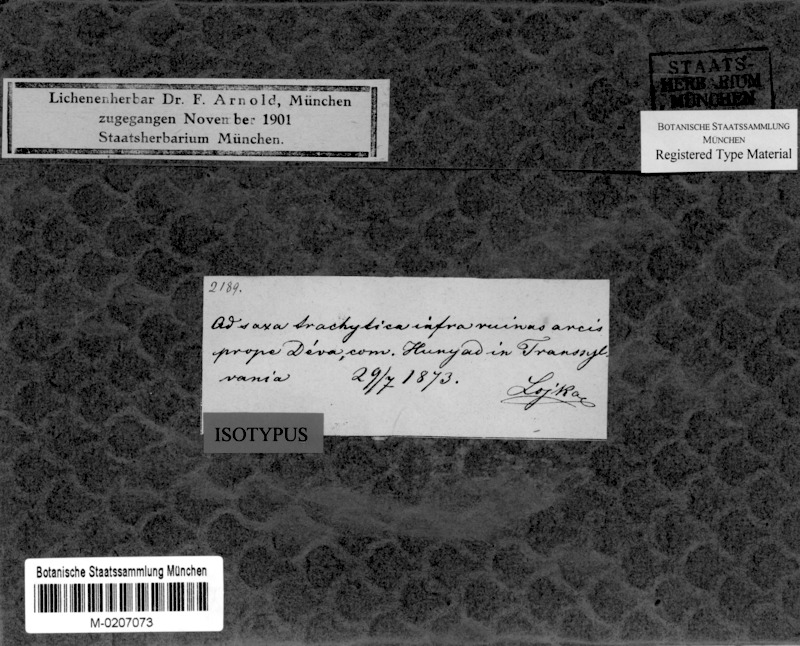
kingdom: Fungi
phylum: Ascomycota
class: Lecanoromycetes
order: Lecanorales
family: Lecanoraceae
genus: Lecanora
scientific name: Lecanora subsulphurea
